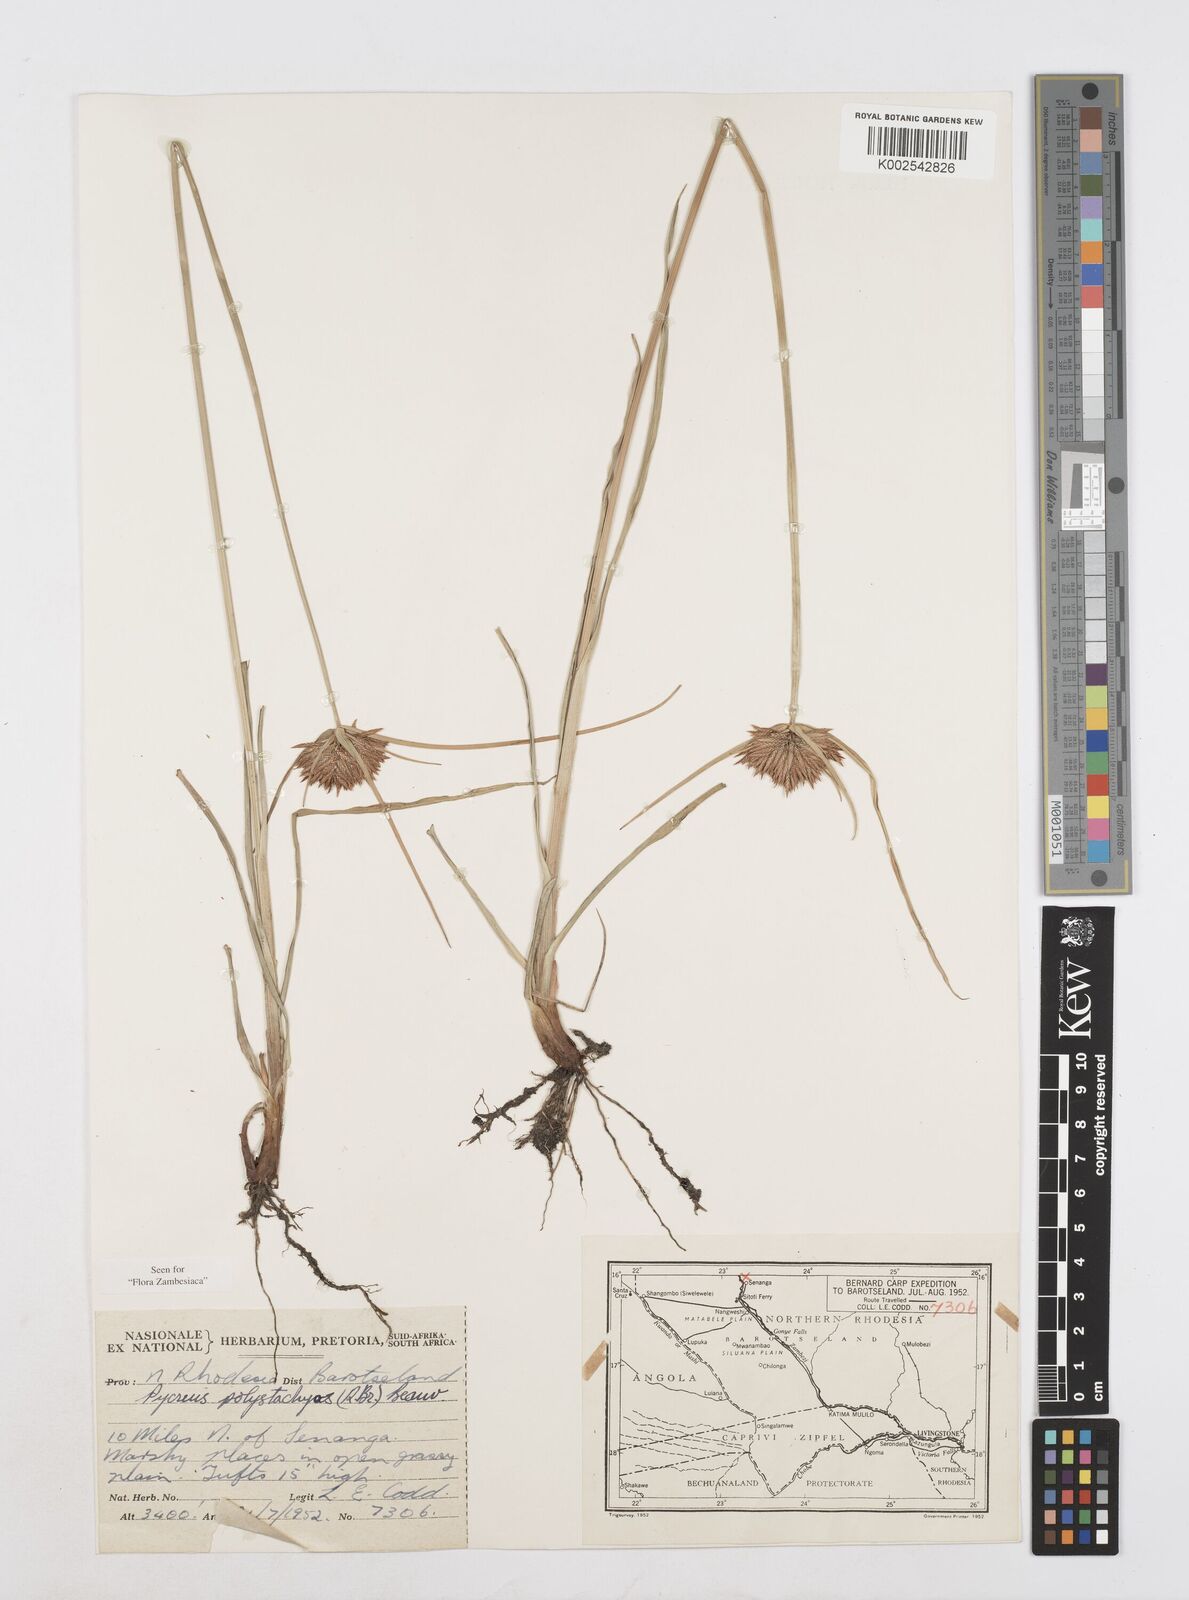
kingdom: Plantae
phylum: Tracheophyta
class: Liliopsida
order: Poales
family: Cyperaceae
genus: Cyperus
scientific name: Cyperus polystachyos
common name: Bunchy flat sedge
